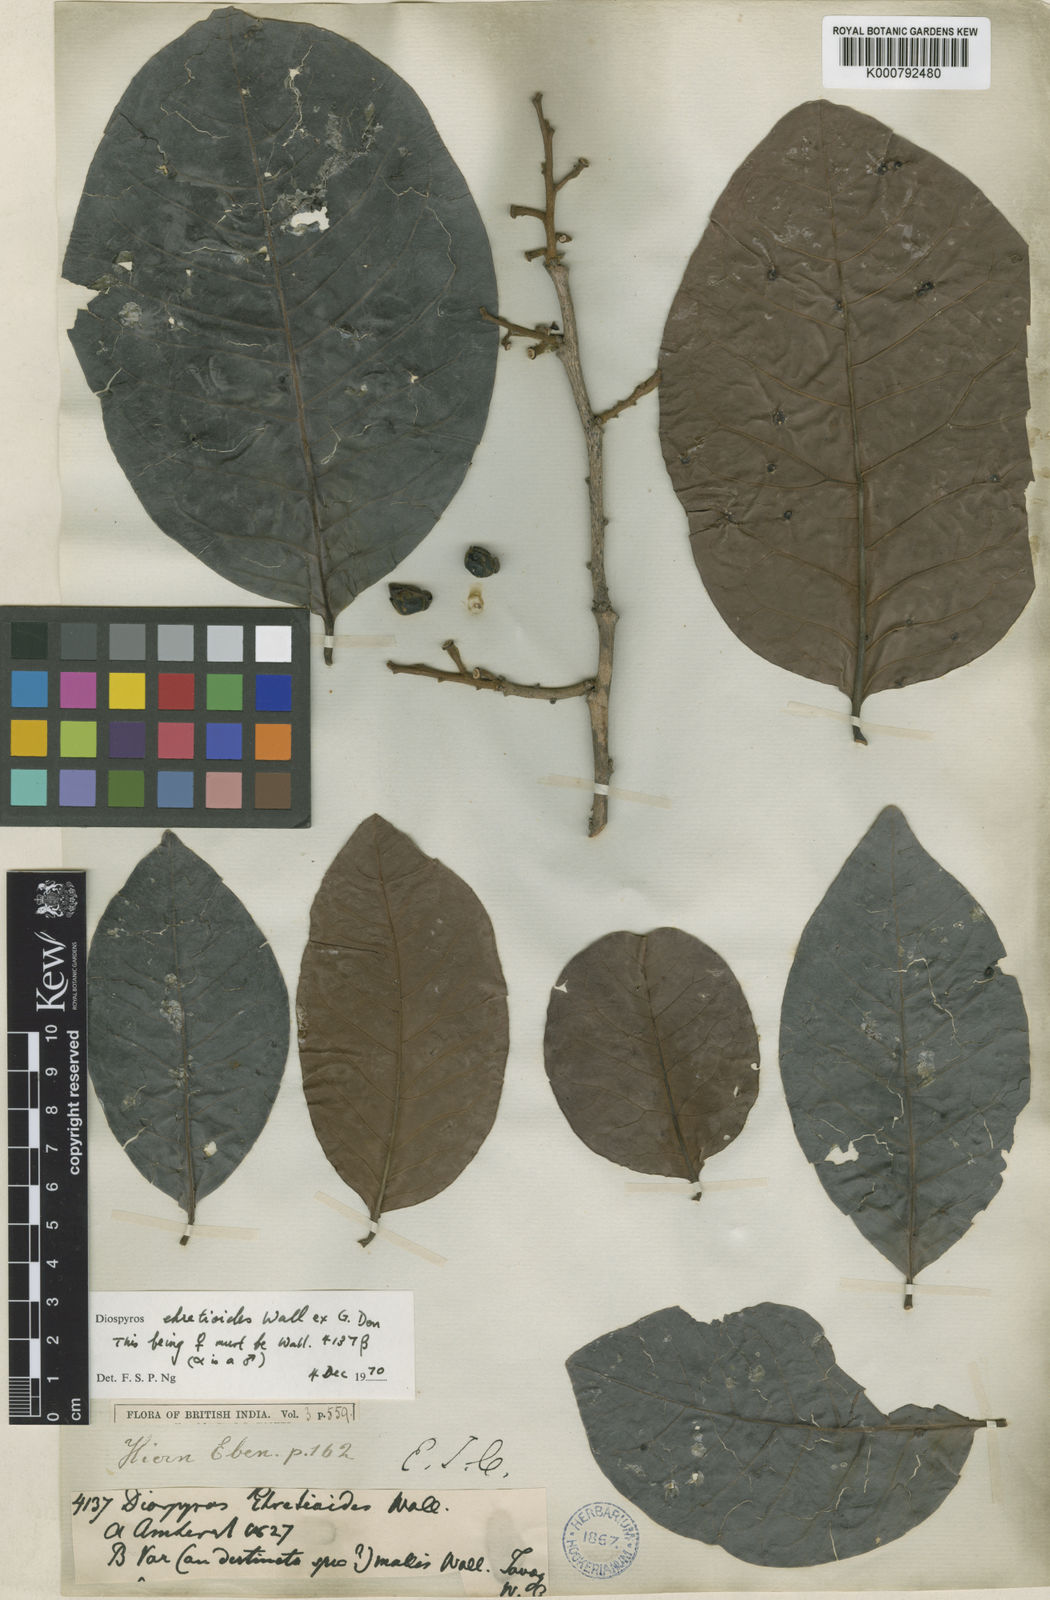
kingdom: Plantae
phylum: Tracheophyta
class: Magnoliopsida
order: Ericales
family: Ebenaceae
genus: Diospyros
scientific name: Diospyros ehretioides
